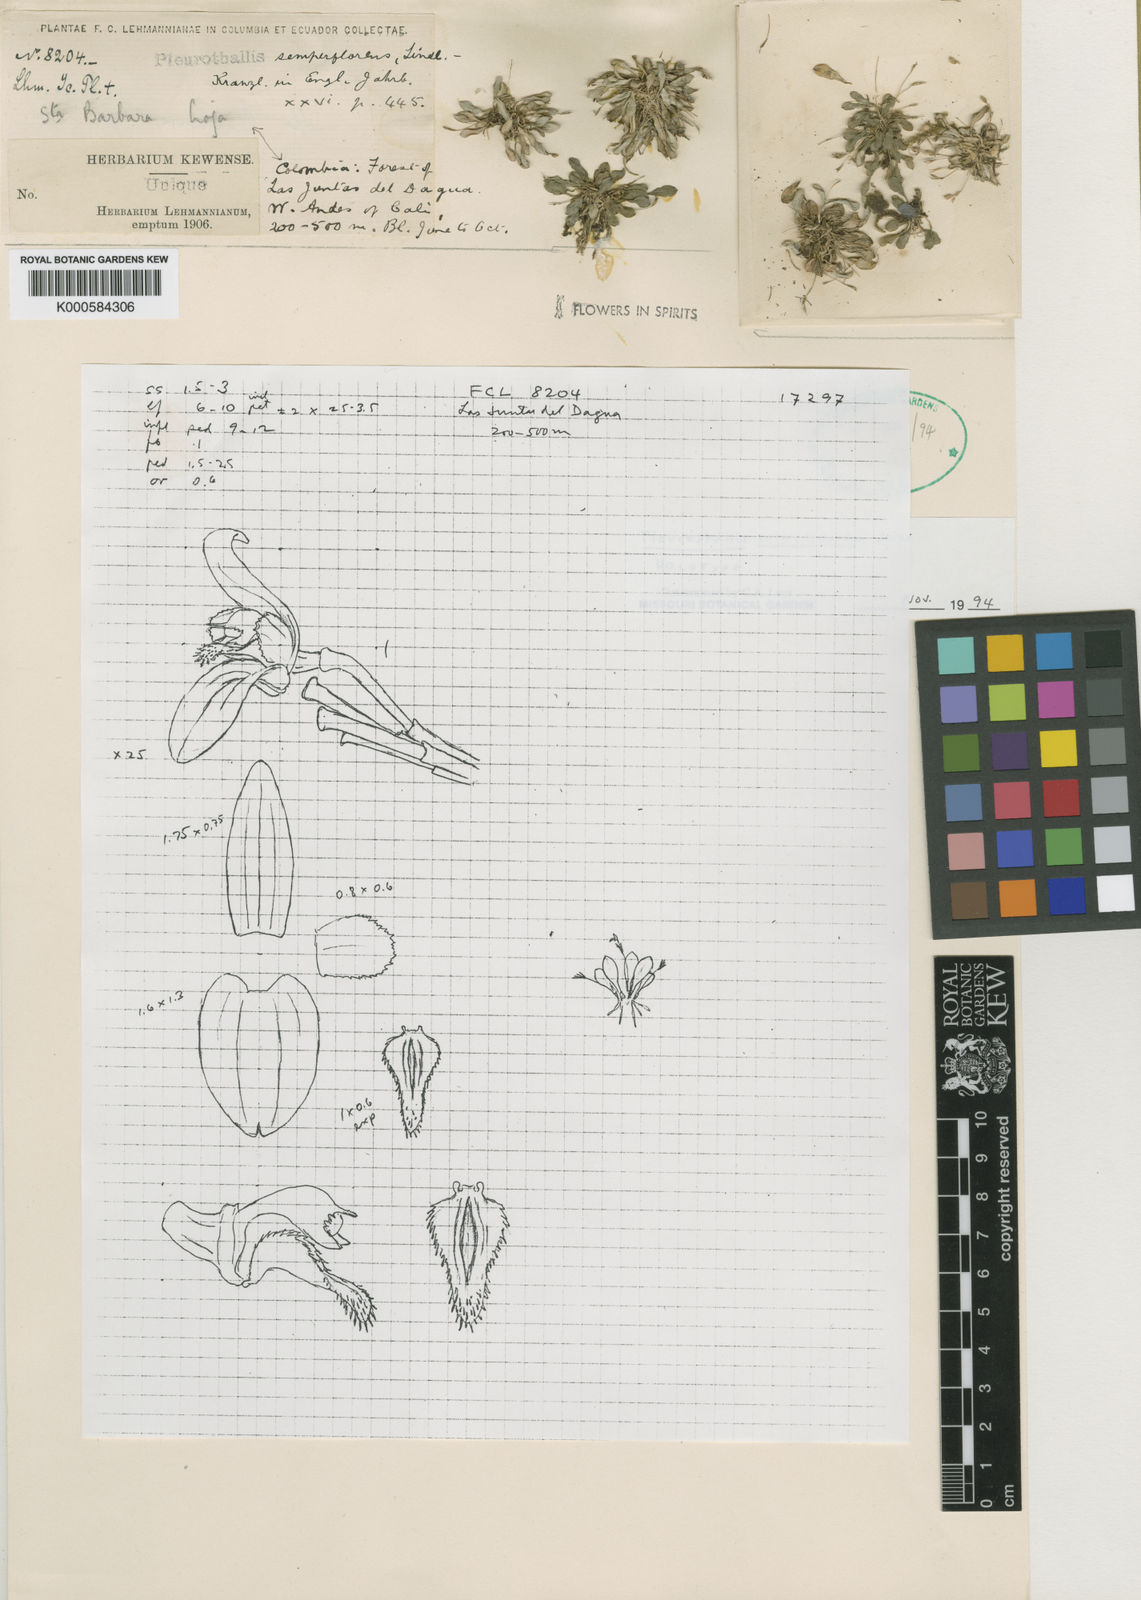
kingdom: Plantae
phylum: Tracheophyta
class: Liliopsida
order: Asparagales
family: Orchidaceae
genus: Anathallis
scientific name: Anathallis barbulata
